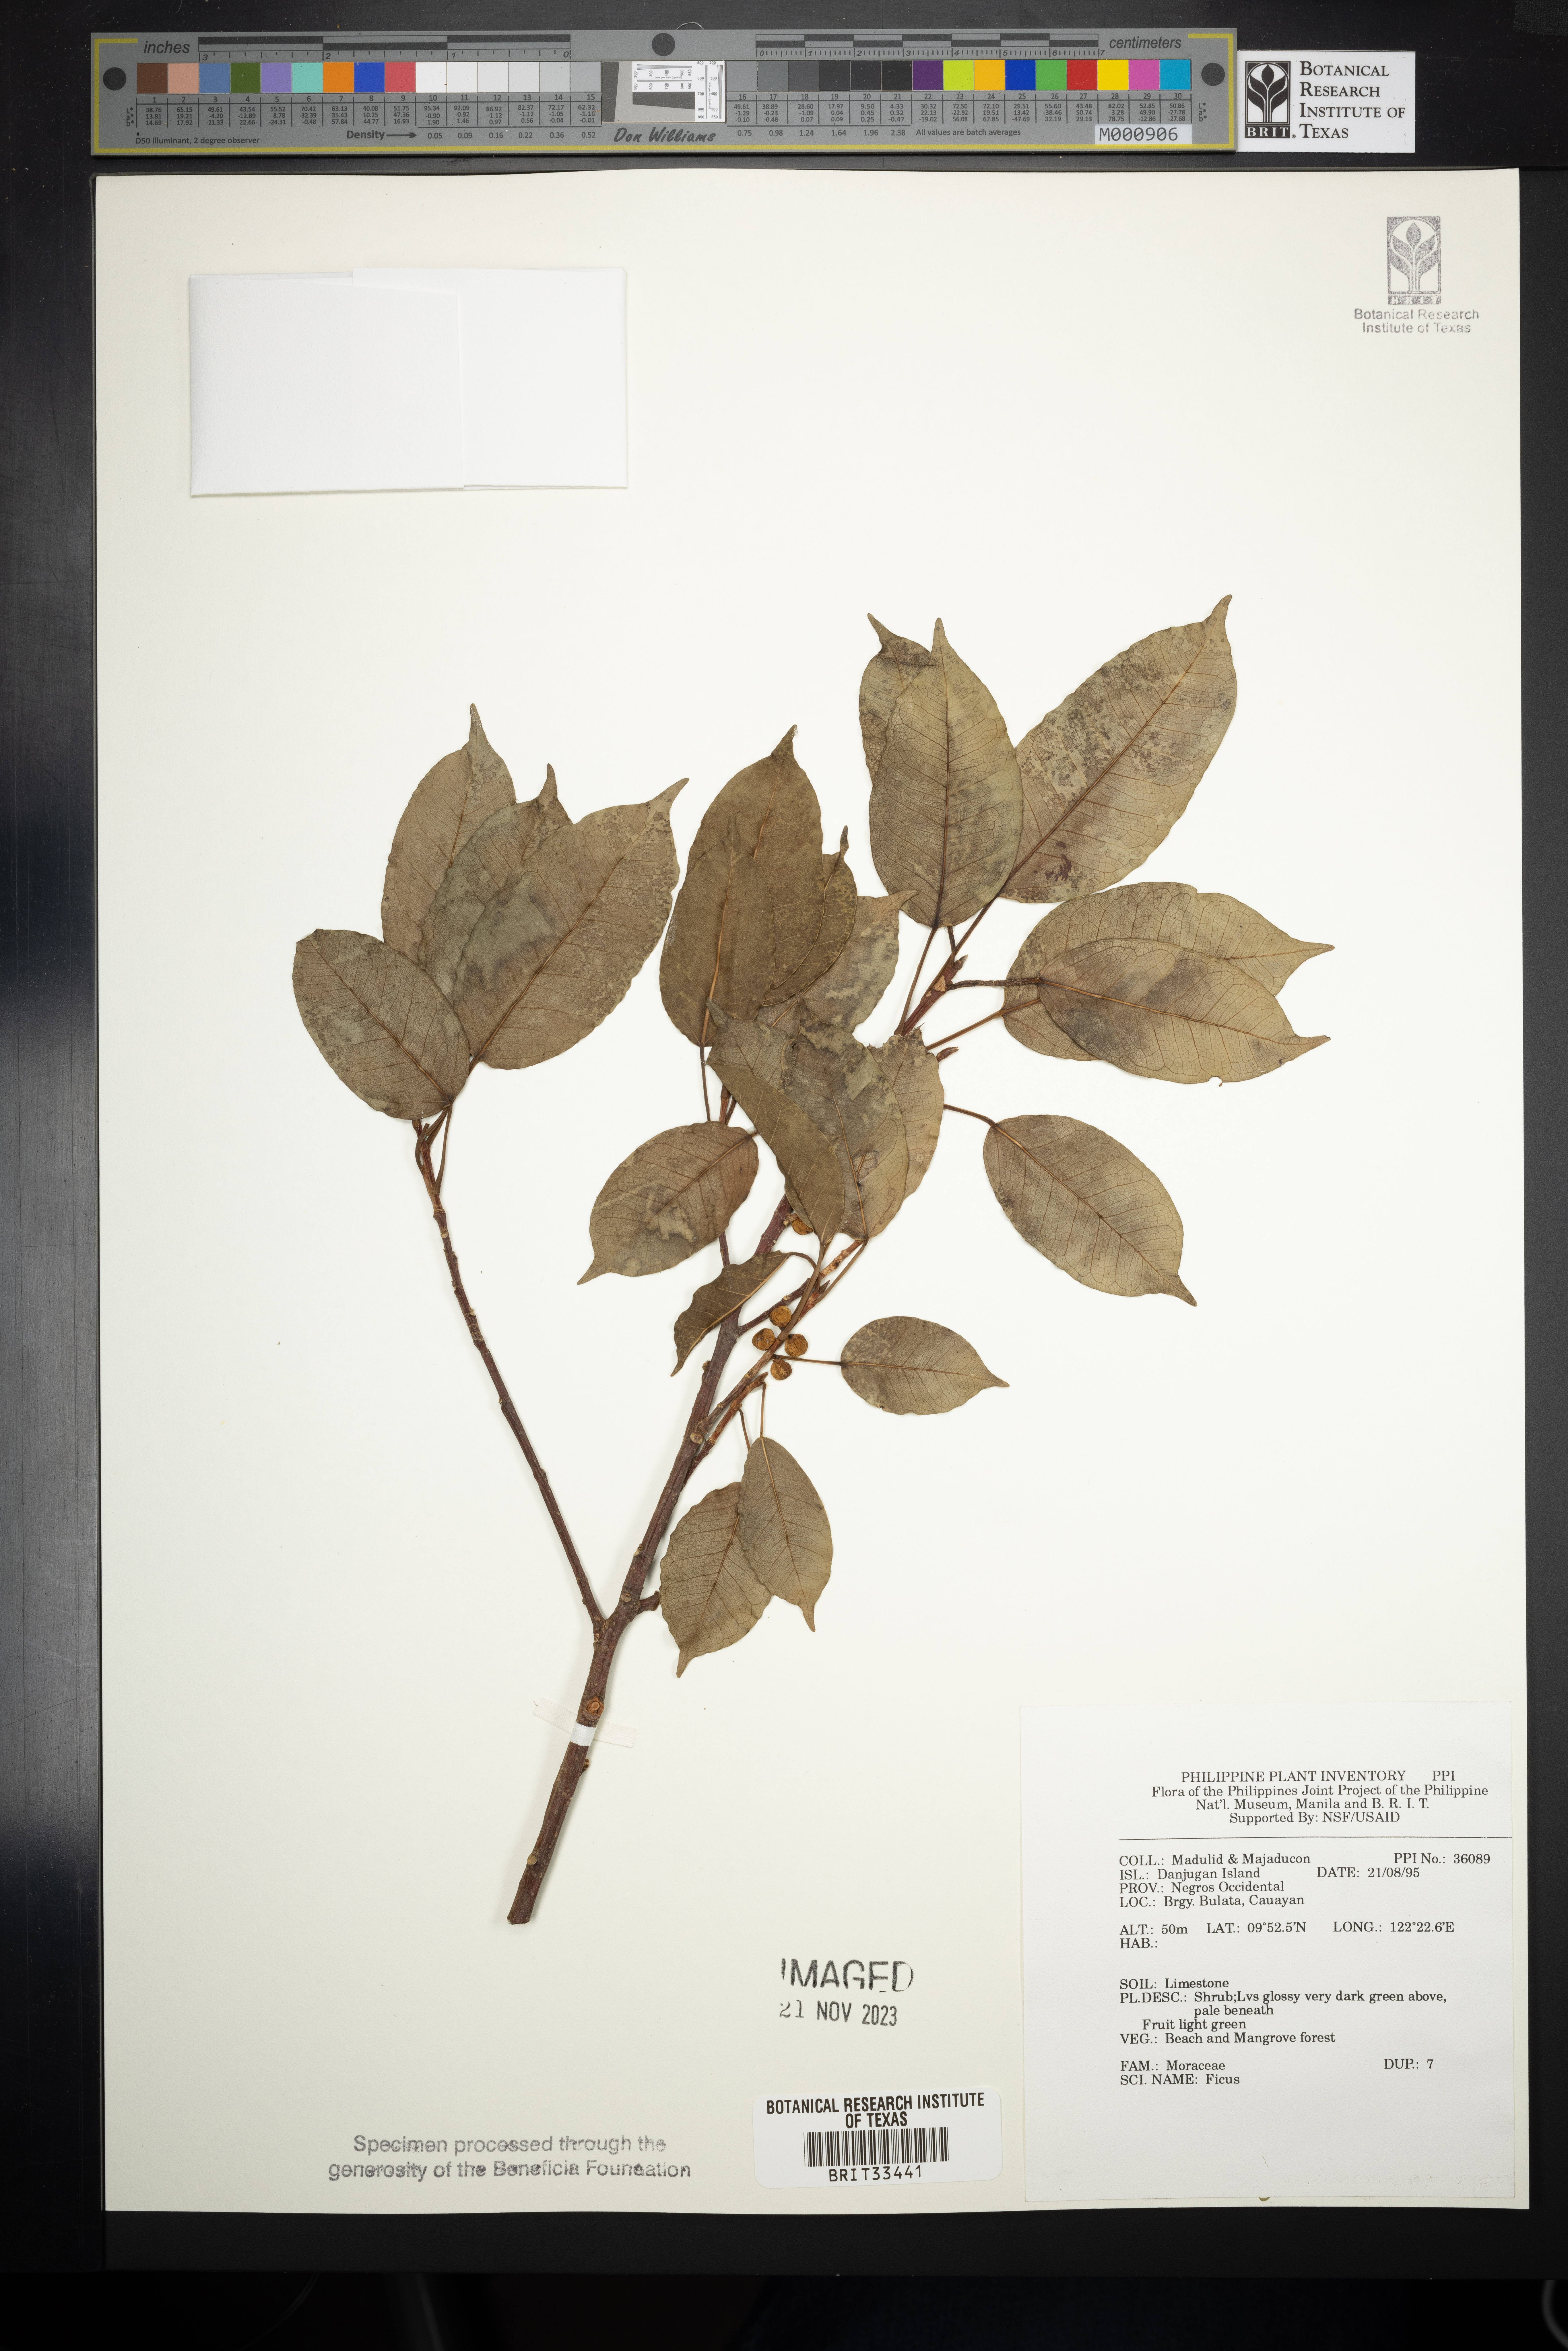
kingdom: Plantae
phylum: Tracheophyta
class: Magnoliopsida
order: Rosales
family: Moraceae
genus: Ficus
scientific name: Ficus
